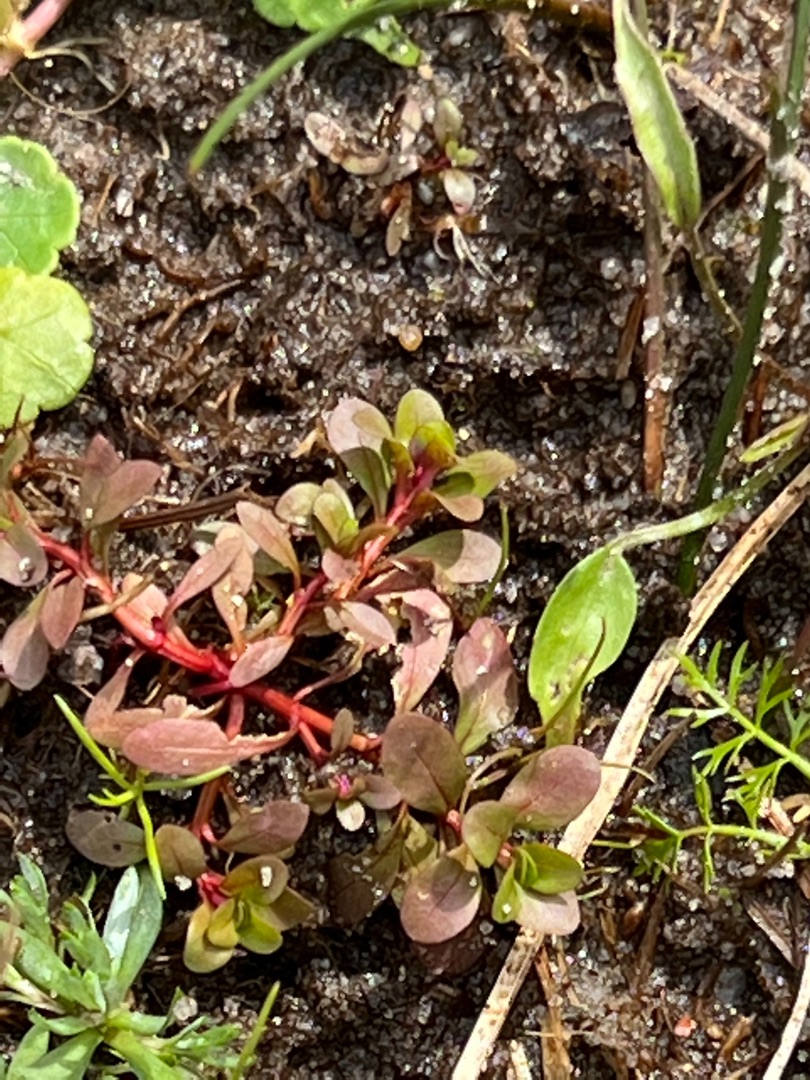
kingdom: Plantae
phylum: Tracheophyta
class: Magnoliopsida
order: Myrtales
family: Lythraceae
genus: Lythrum
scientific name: Lythrum portula
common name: Vandportulak
